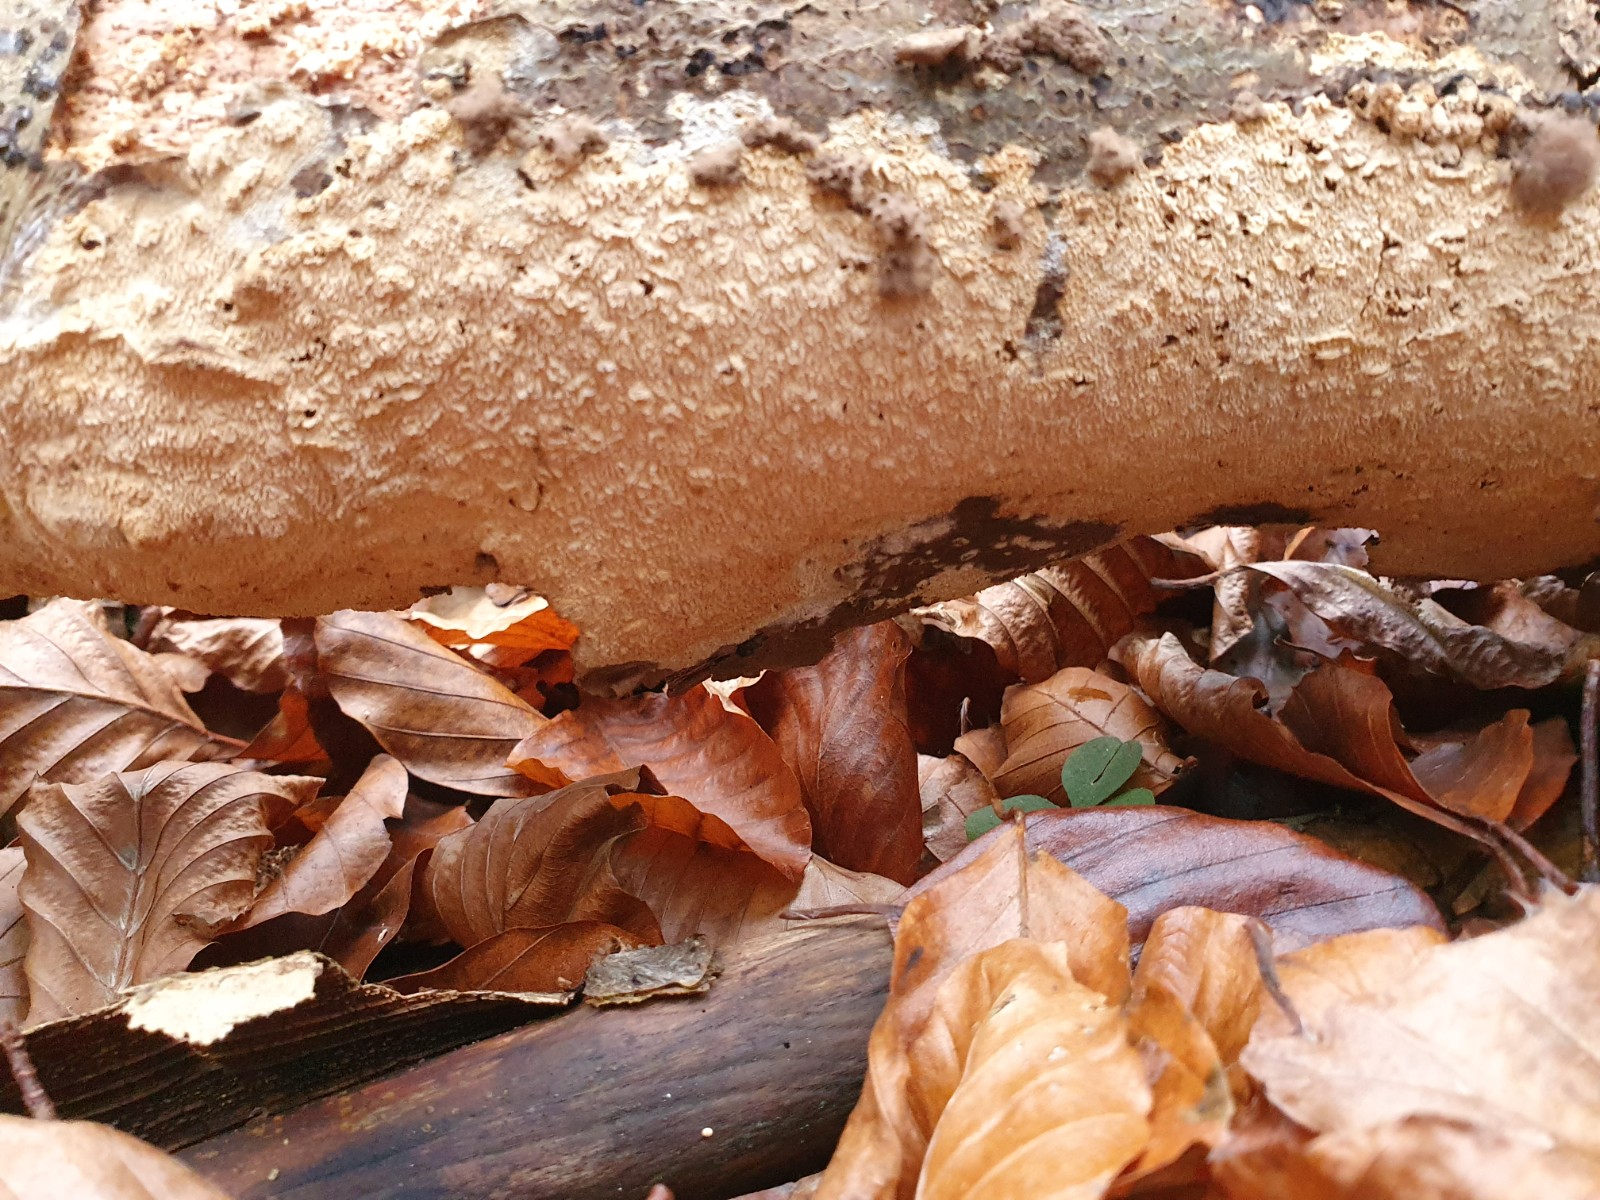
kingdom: Fungi
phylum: Basidiomycota
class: Agaricomycetes
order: Hymenochaetales
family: Schizoporaceae
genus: Xylodon
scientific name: Xylodon
